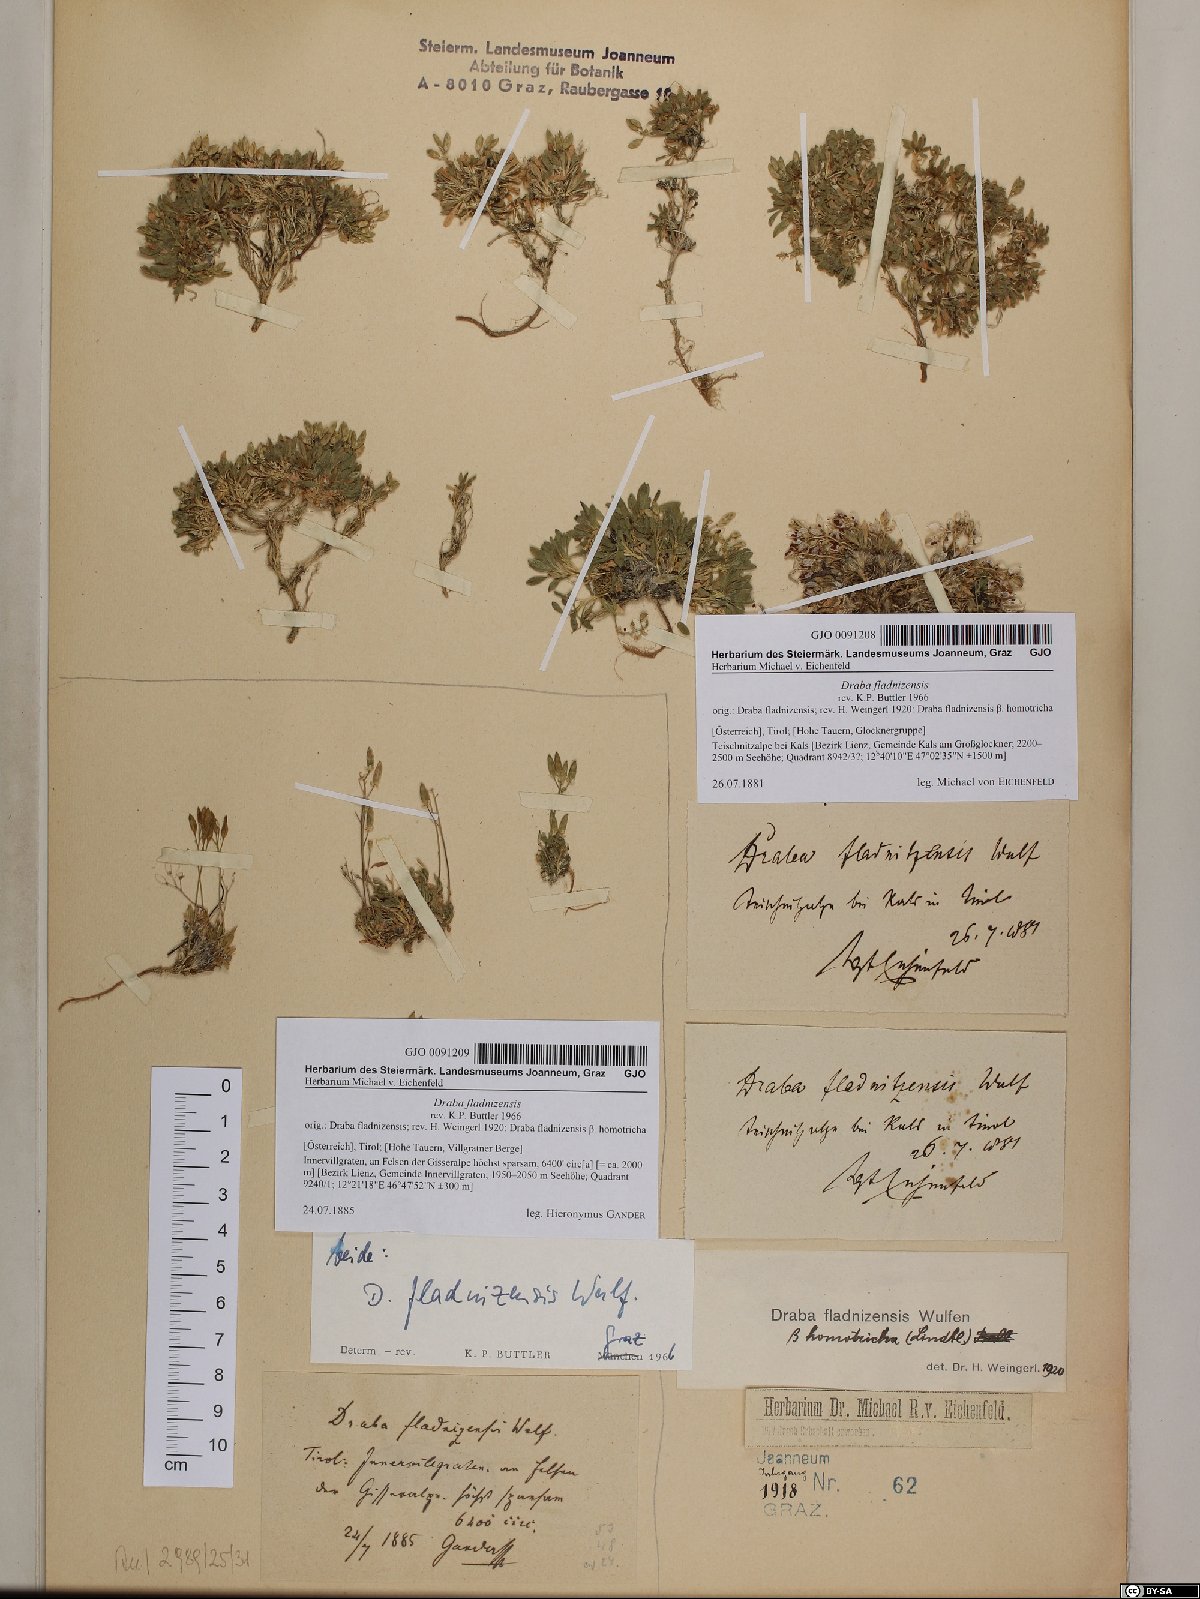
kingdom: Plantae
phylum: Tracheophyta
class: Magnoliopsida
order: Brassicales
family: Brassicaceae
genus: Draba
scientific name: Draba fladnizensis
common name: Austrian draba
